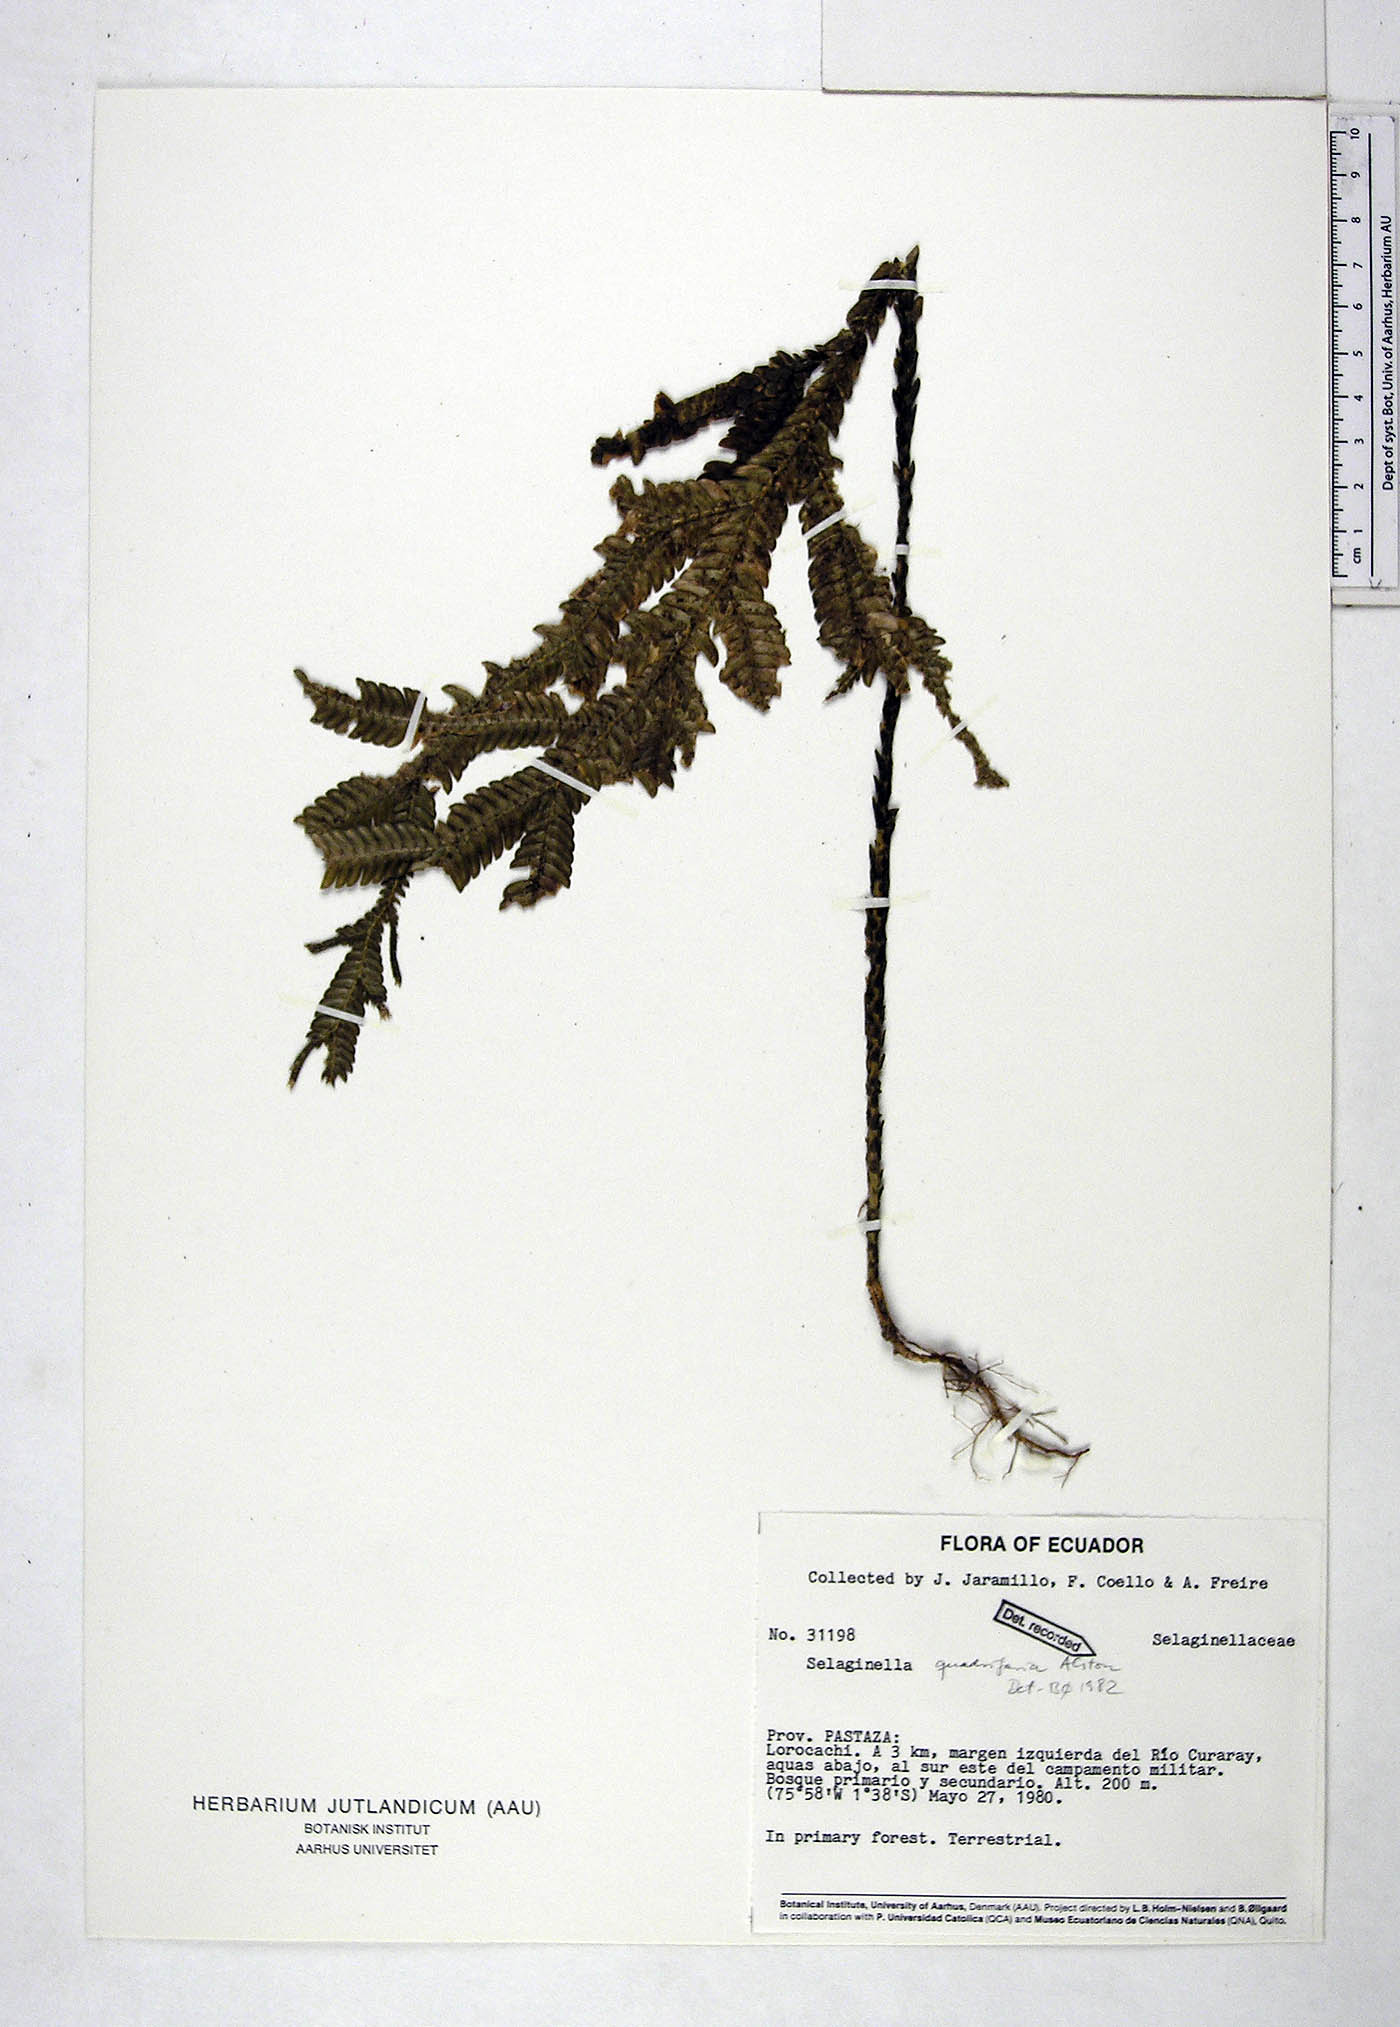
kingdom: Plantae
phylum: Tracheophyta
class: Lycopodiopsida
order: Selaginellales
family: Selaginellaceae
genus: Selaginella
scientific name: Selaginella quadrifaria
